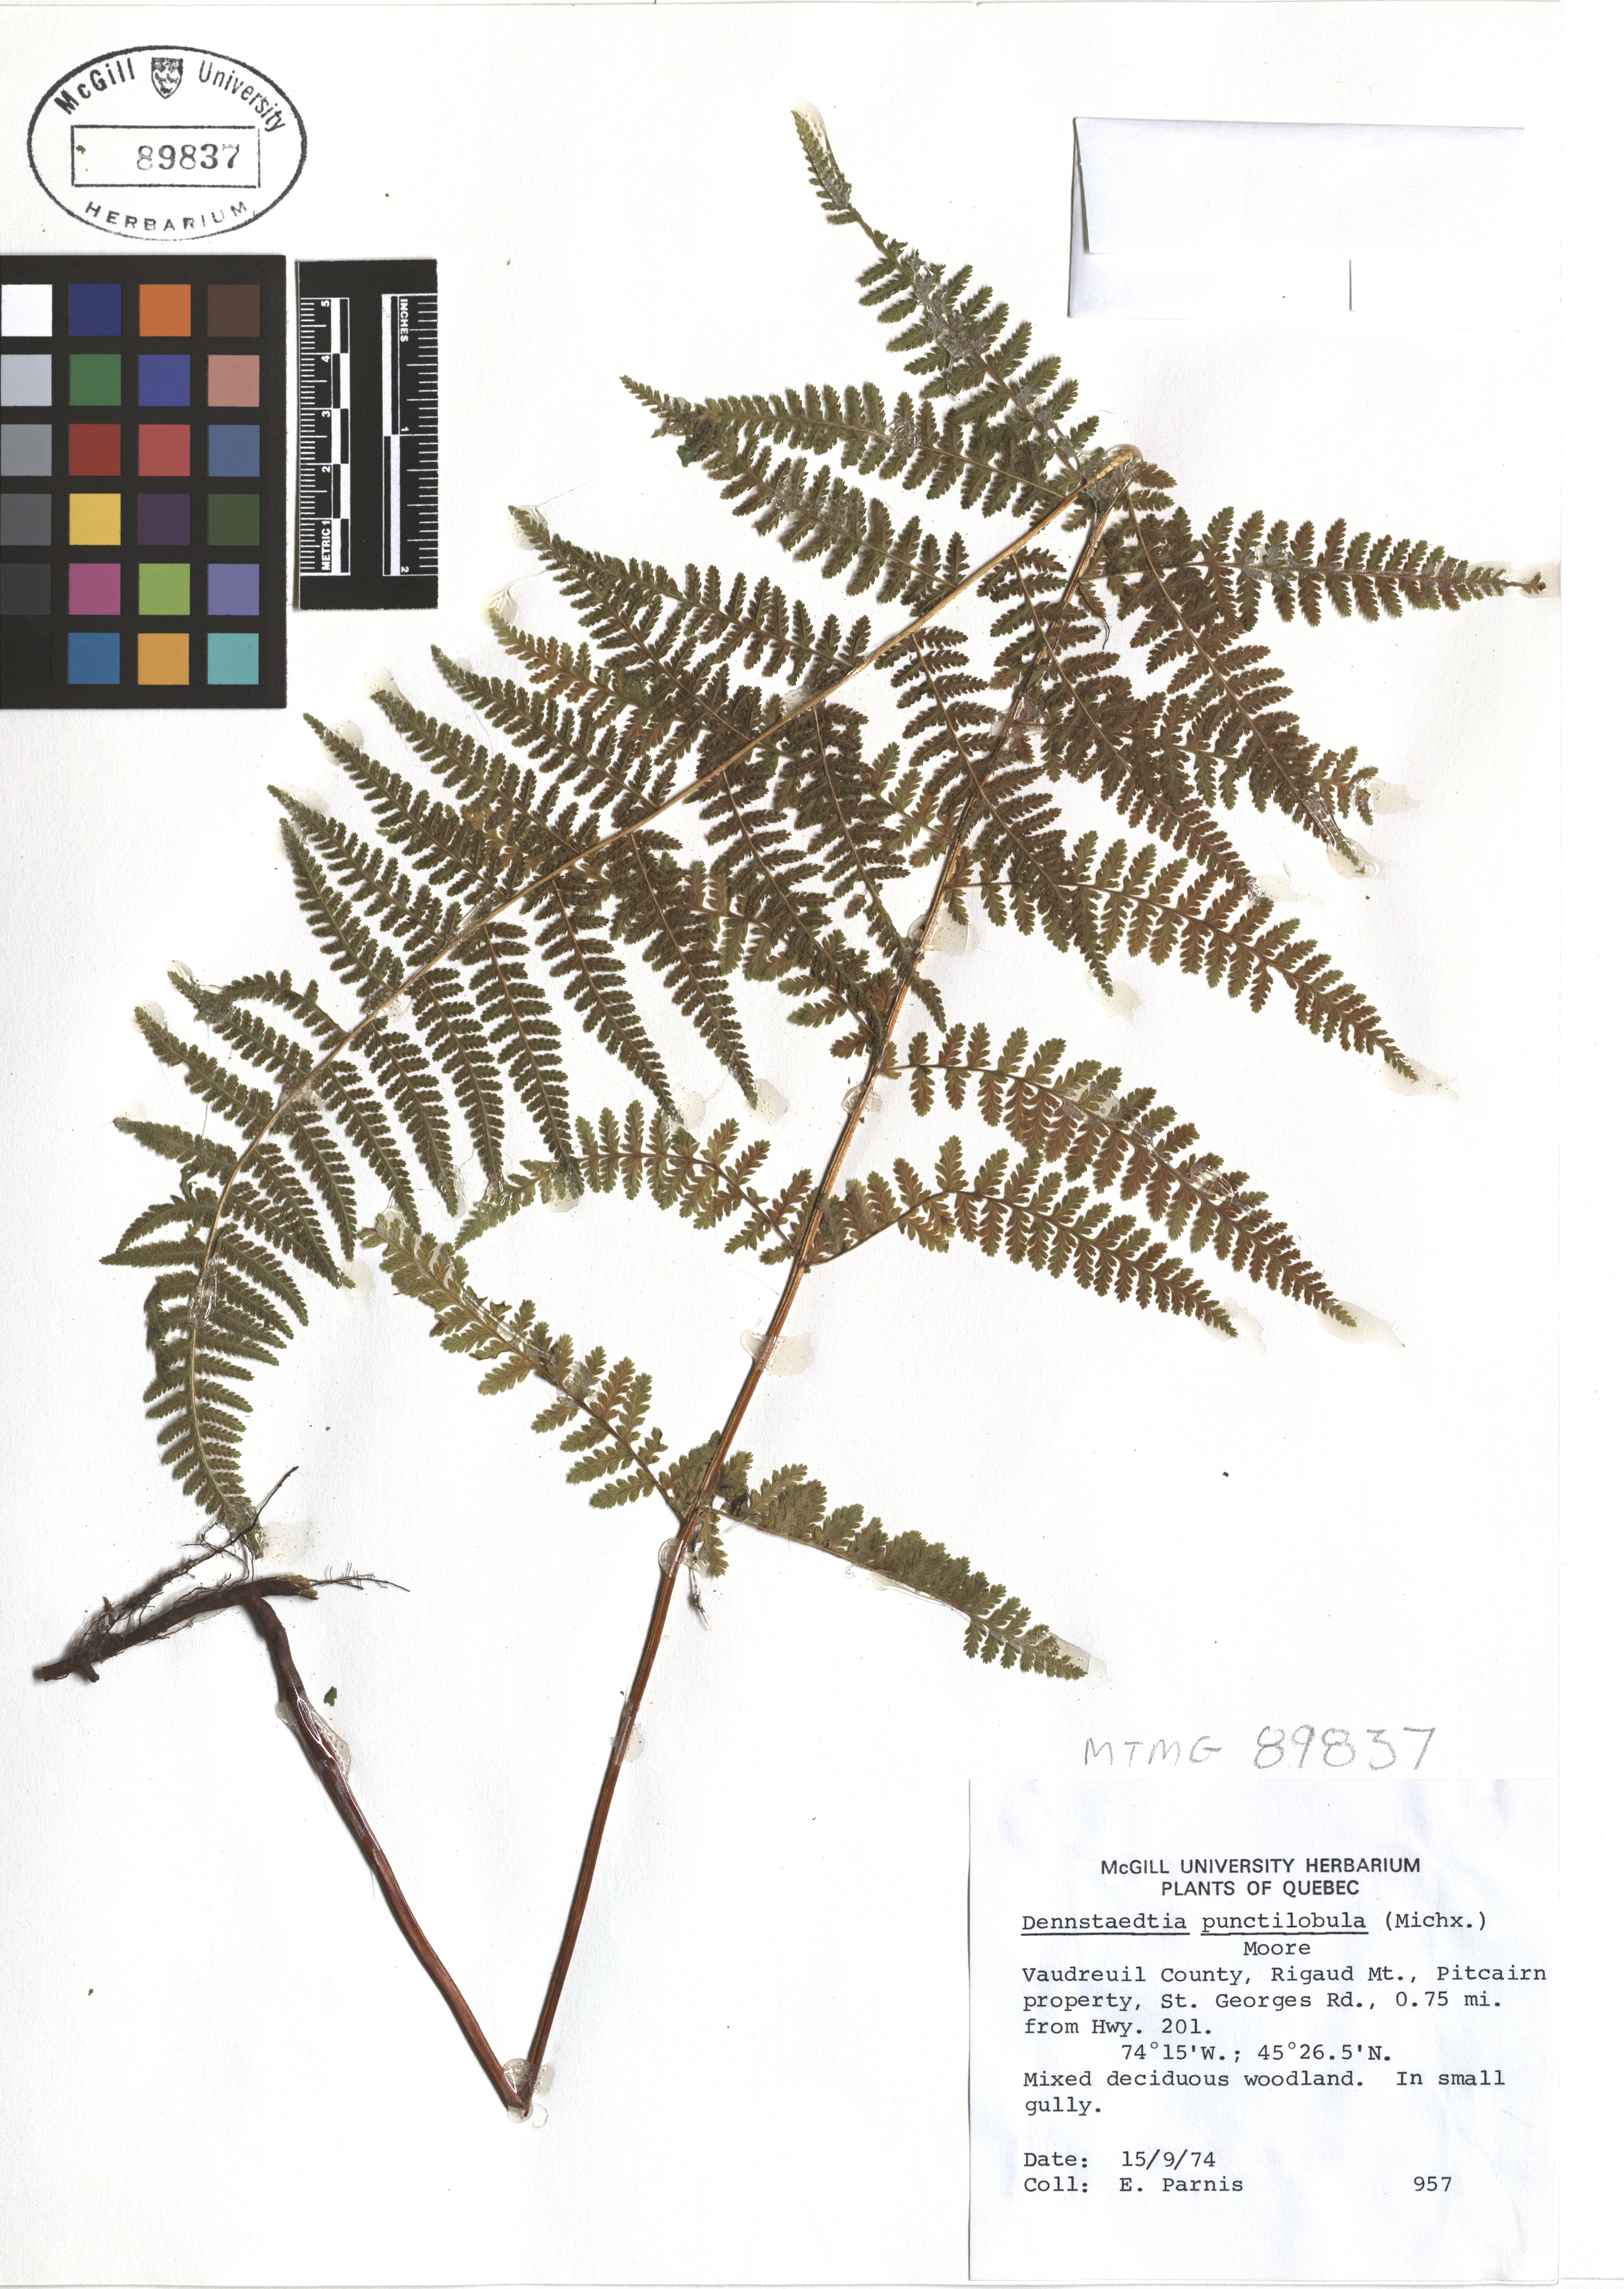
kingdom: Plantae
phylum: Tracheophyta
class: Polypodiopsida
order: Polypodiales
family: Dennstaedtiaceae
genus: Sitobolium
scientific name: Sitobolium punctilobum
